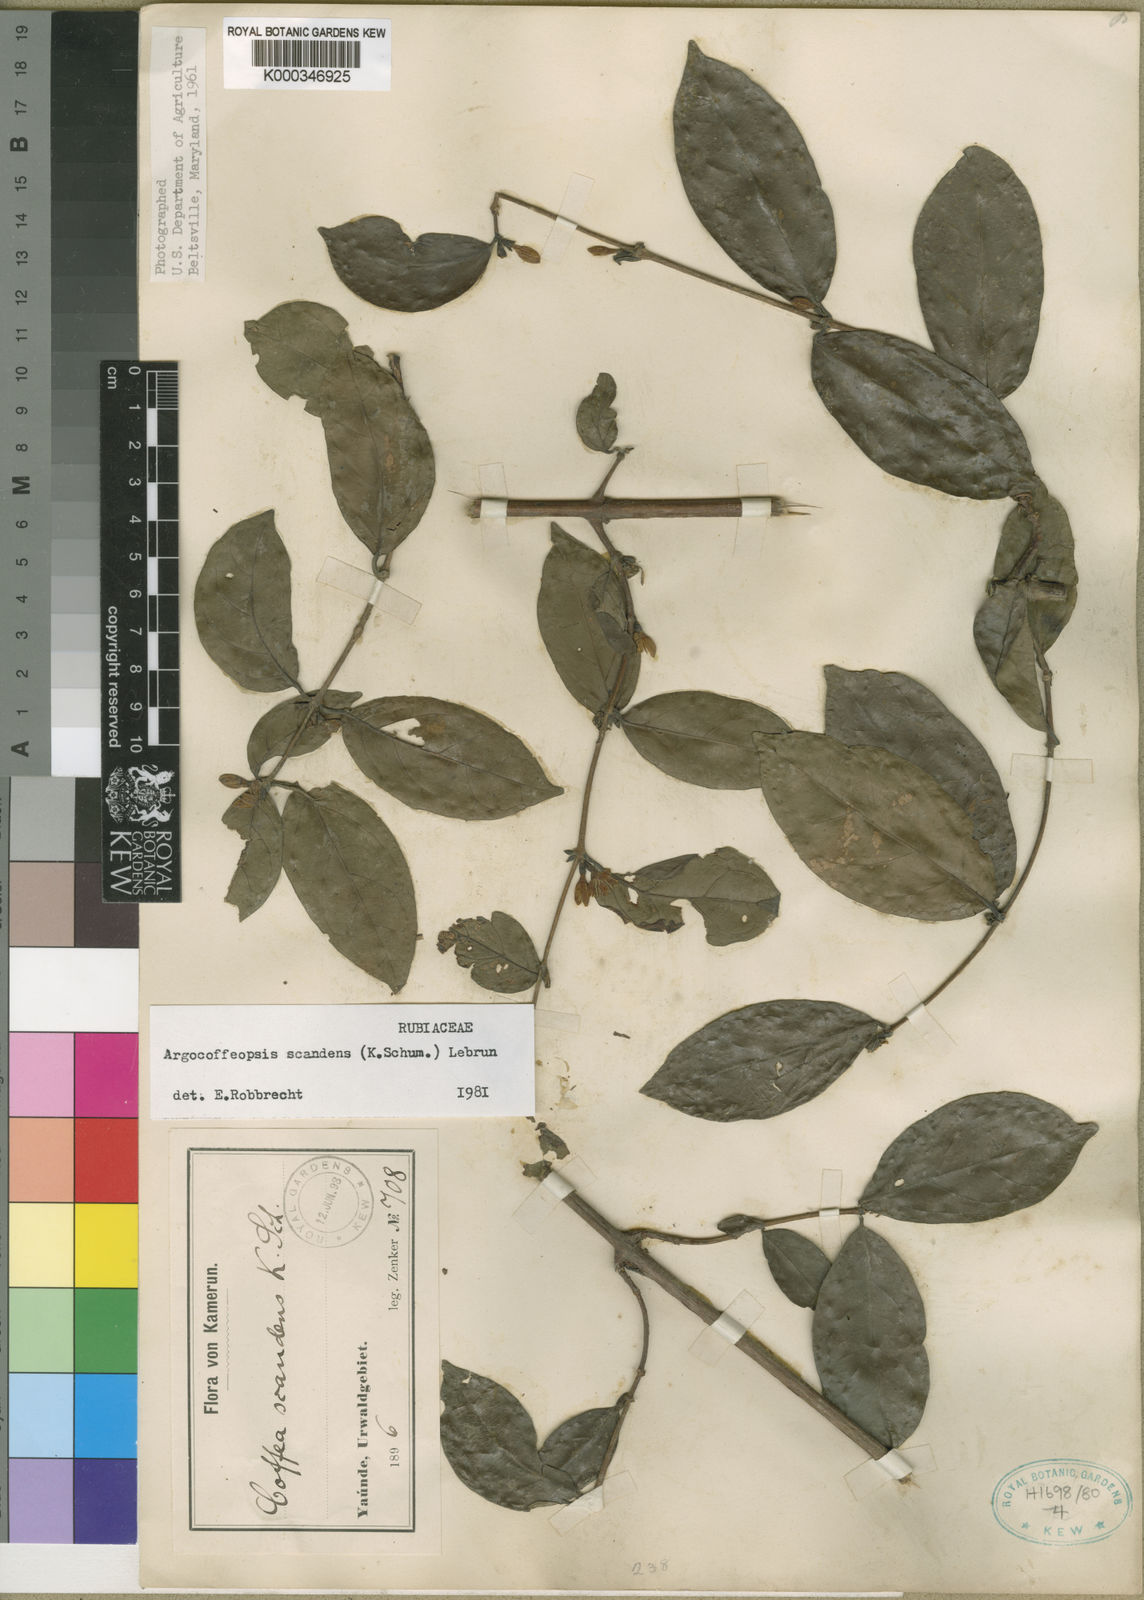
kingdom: Plantae
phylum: Tracheophyta
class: Magnoliopsida
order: Gentianales
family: Rubiaceae
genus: Argocoffeopsis
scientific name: Argocoffeopsis scandens
